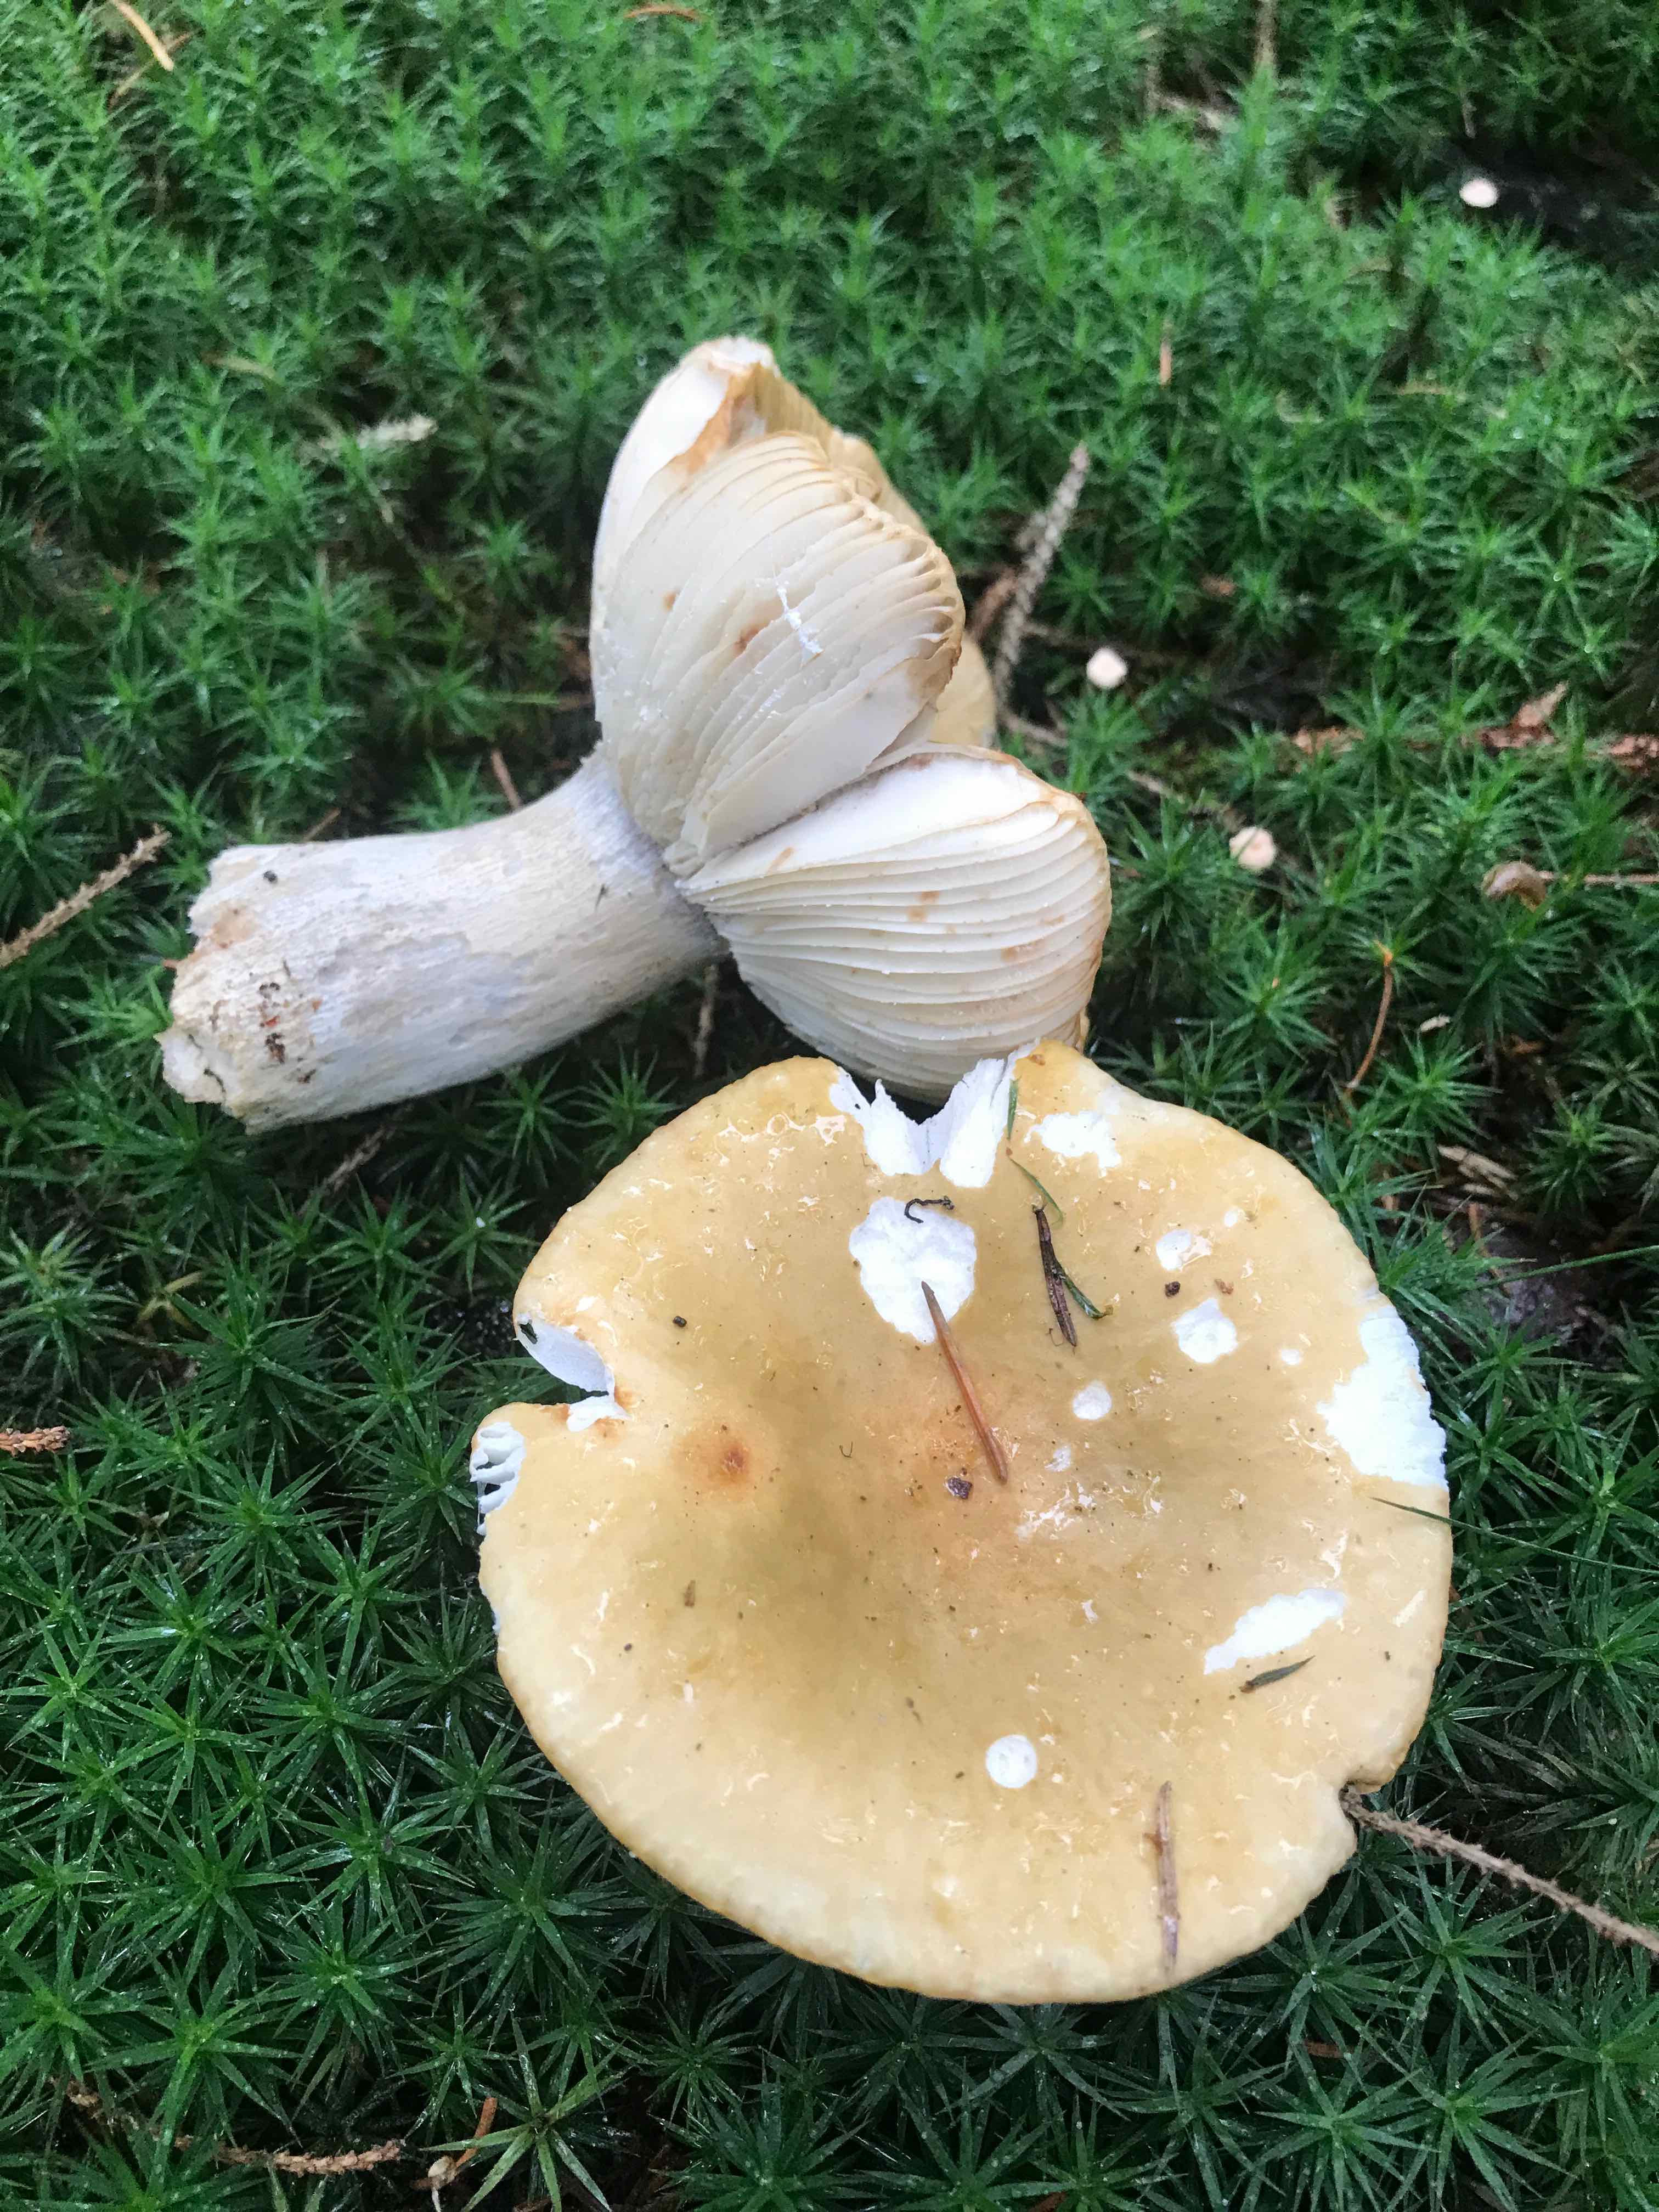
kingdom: Fungi
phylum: Basidiomycota
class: Agaricomycetes
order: Russulales
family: Russulaceae
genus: Russula
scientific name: Russula ochroleuca
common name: okkergul skørhat
